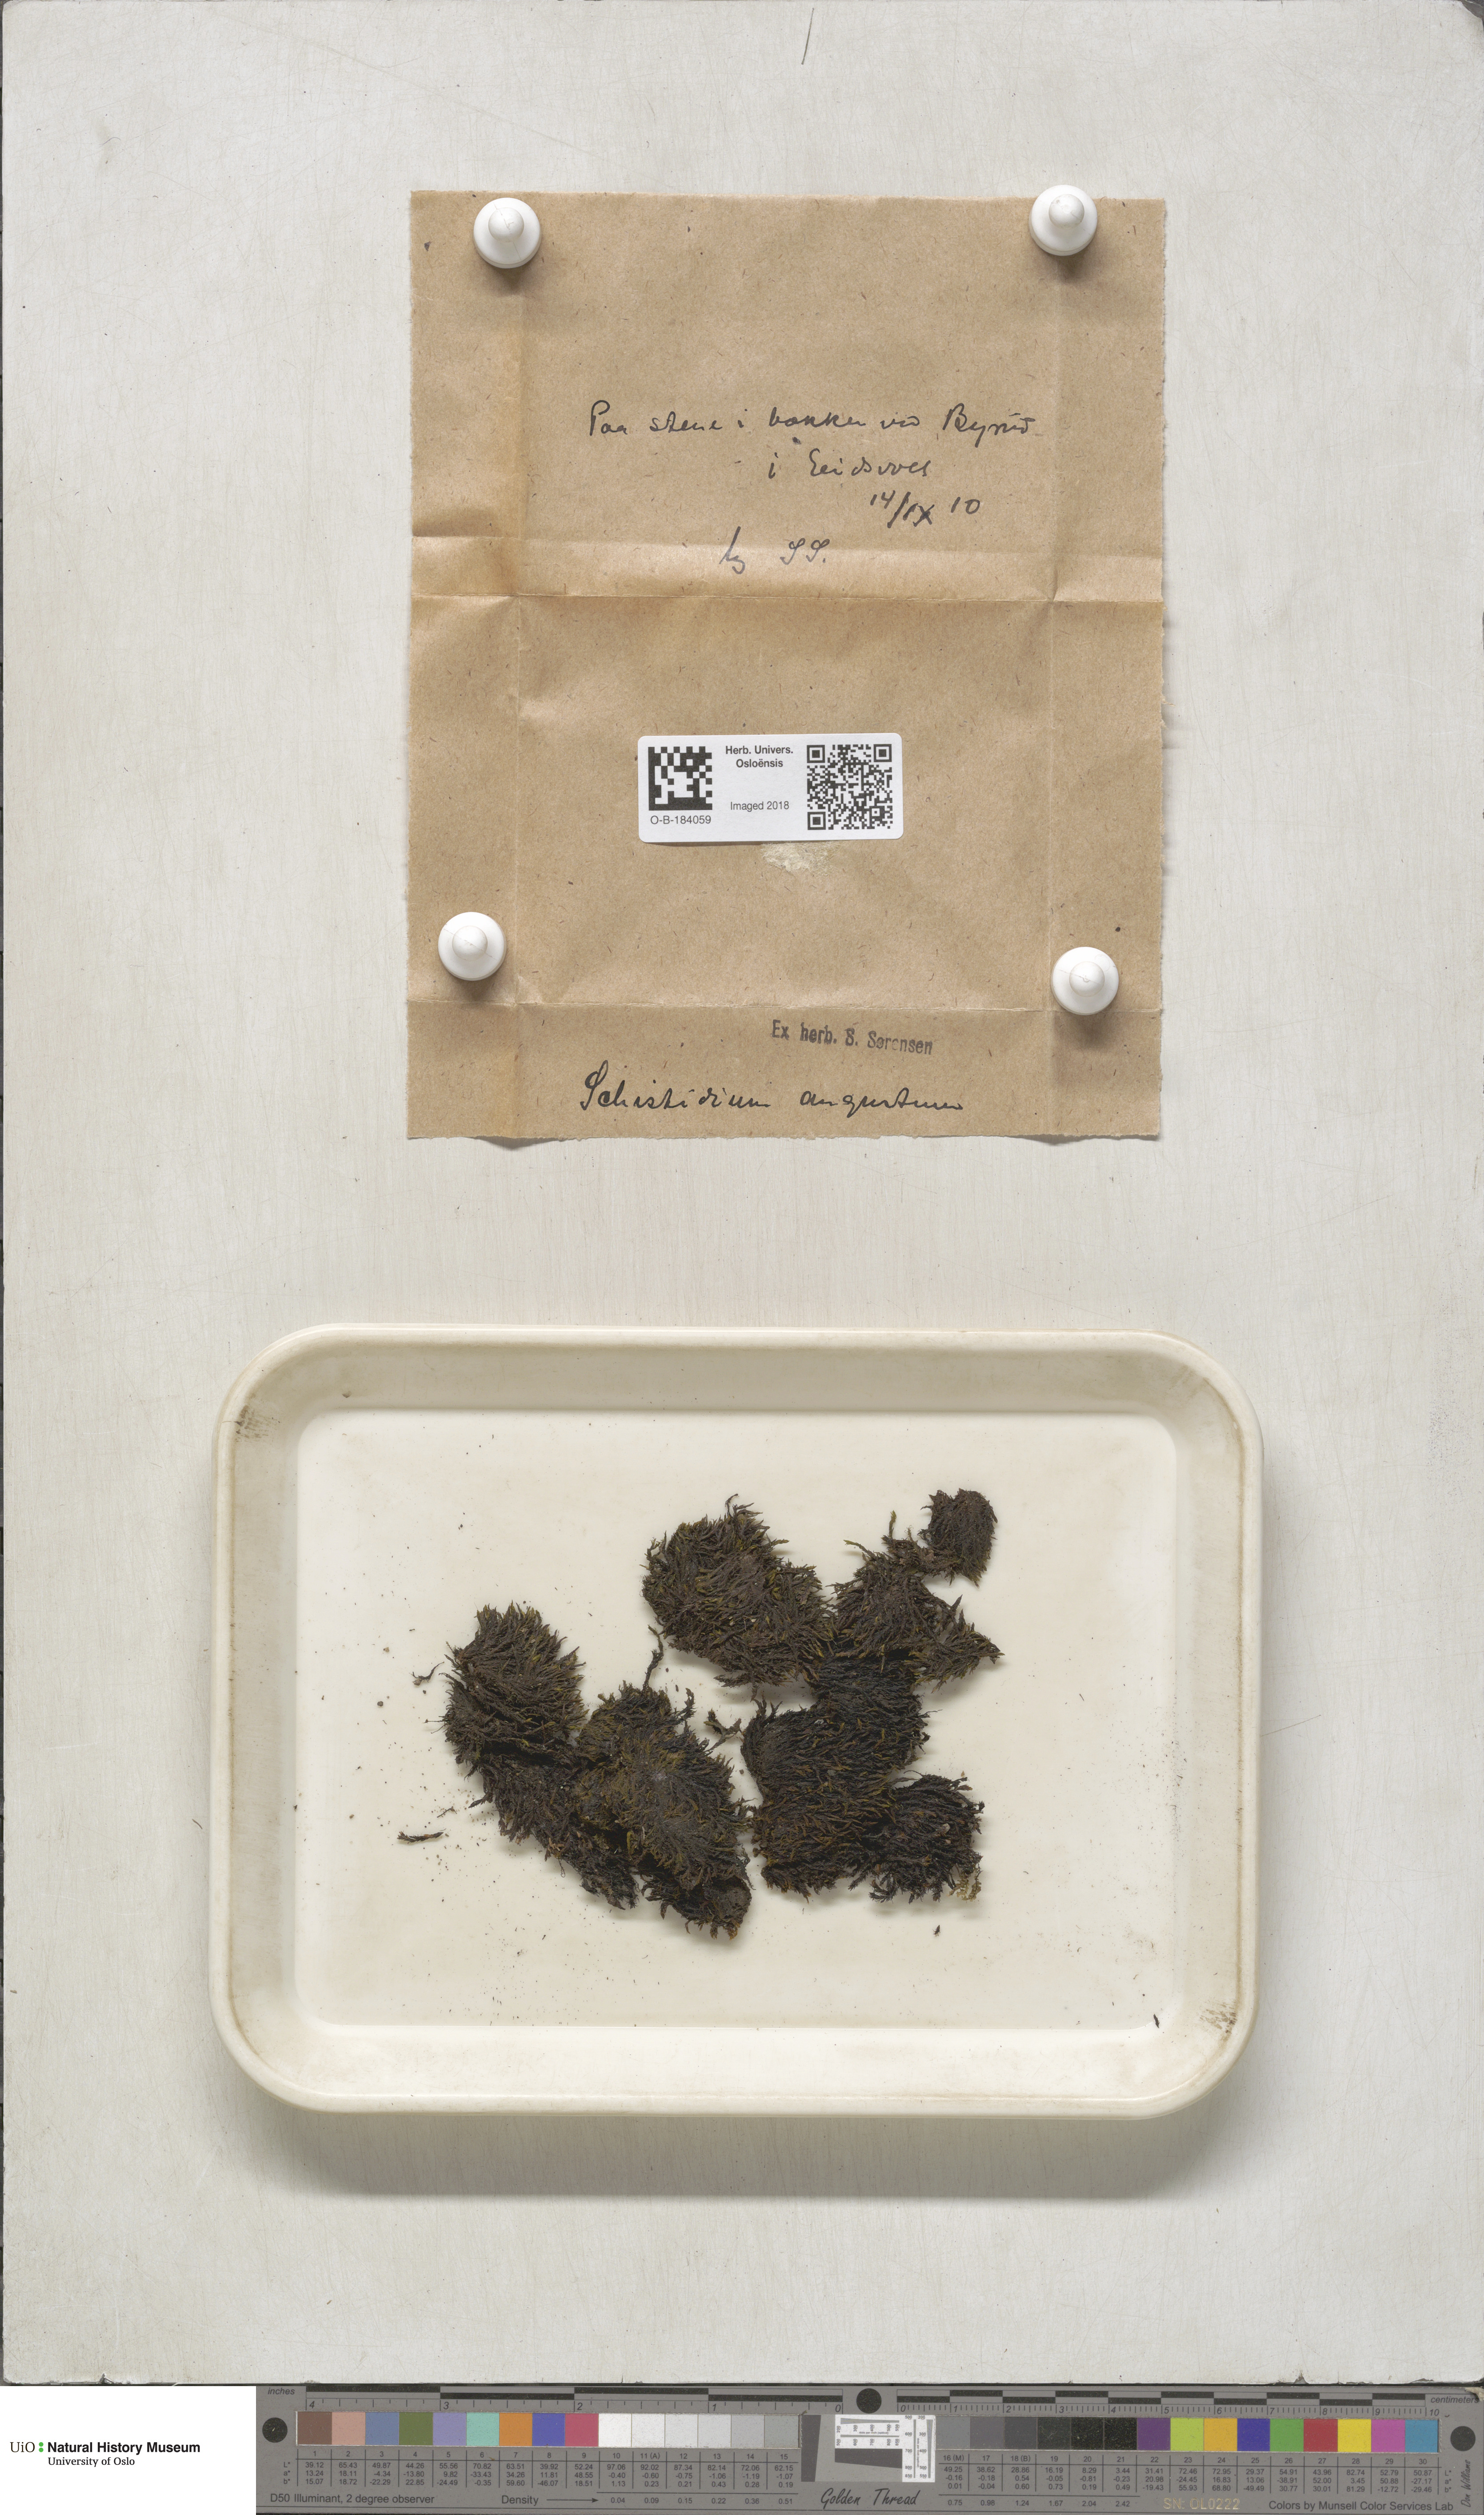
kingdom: Plantae
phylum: Bryophyta
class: Bryopsida
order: Grimmiales
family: Grimmiaceae
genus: Schistidium
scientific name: Schistidium agassizii
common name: Agassiz's bloom moss
